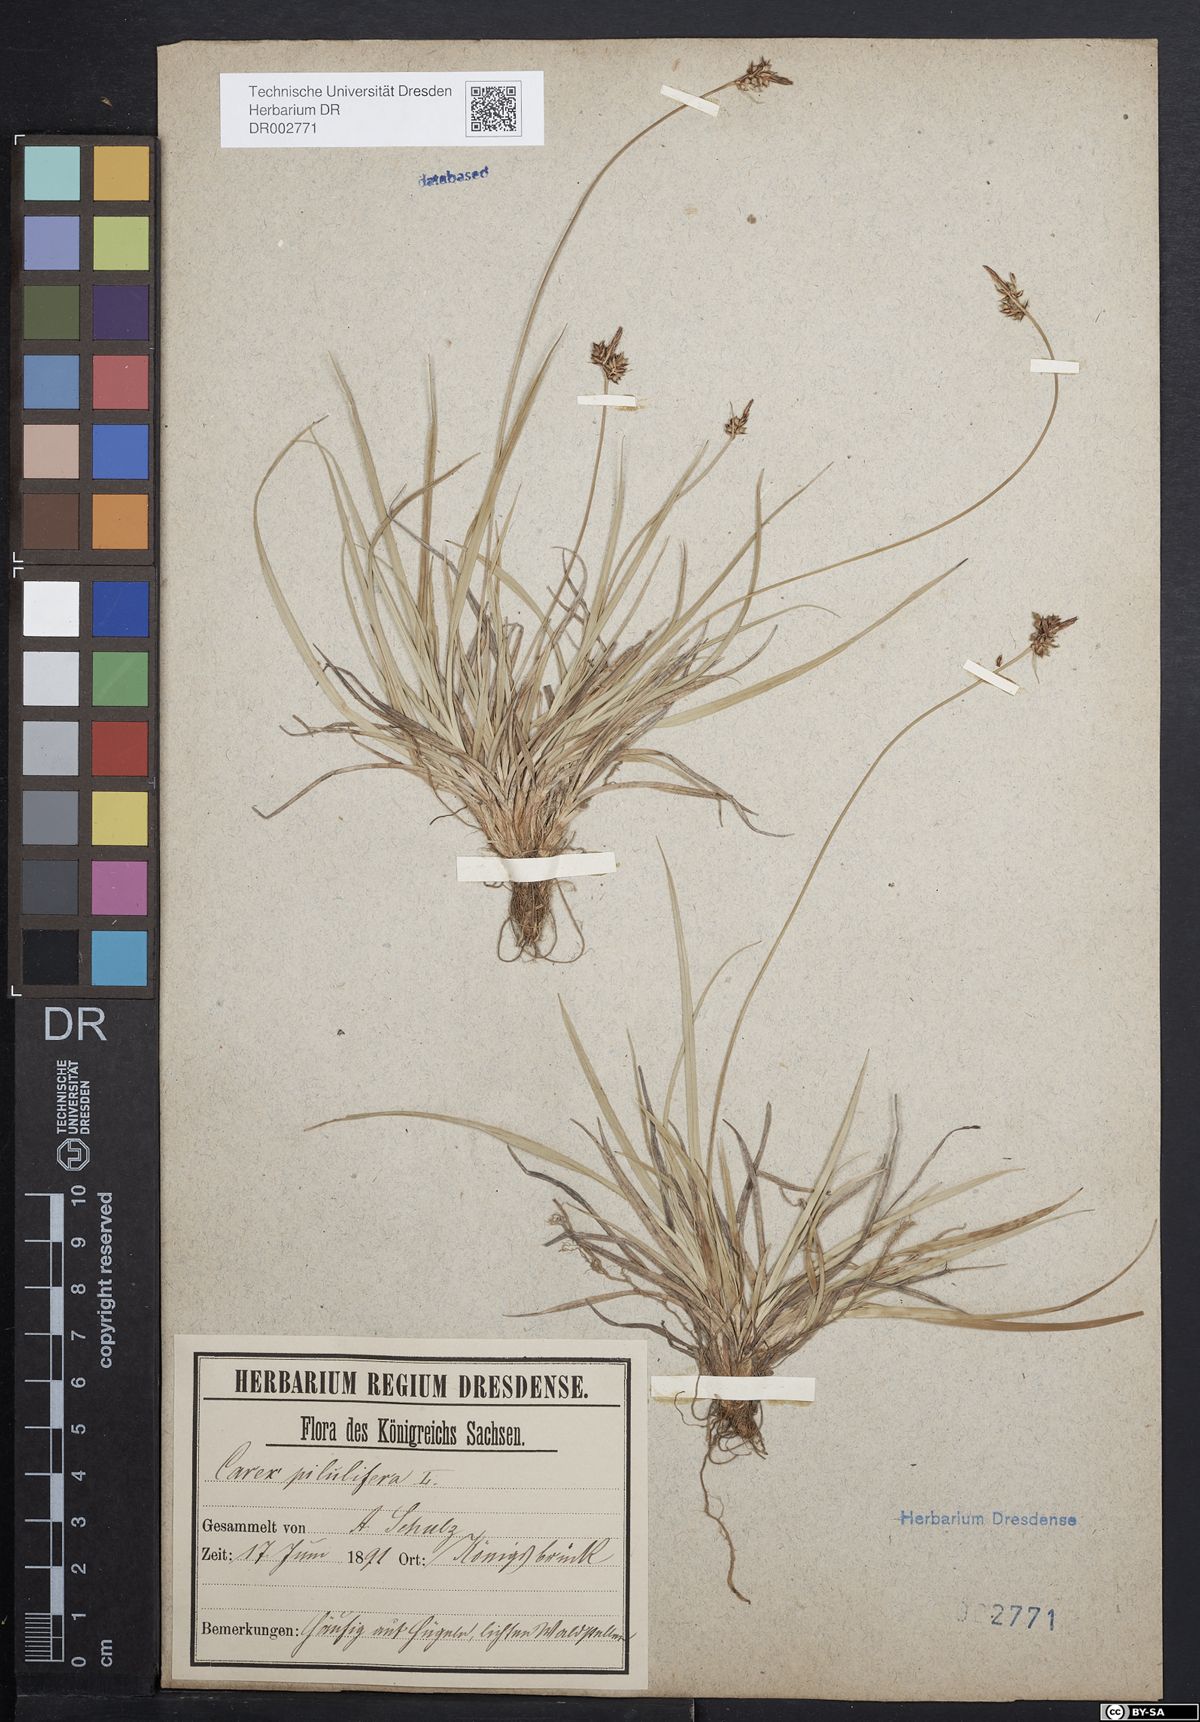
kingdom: Plantae
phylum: Tracheophyta
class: Liliopsida
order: Poales
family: Cyperaceae
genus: Carex
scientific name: Carex caryophyllea
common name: Spring sedge
